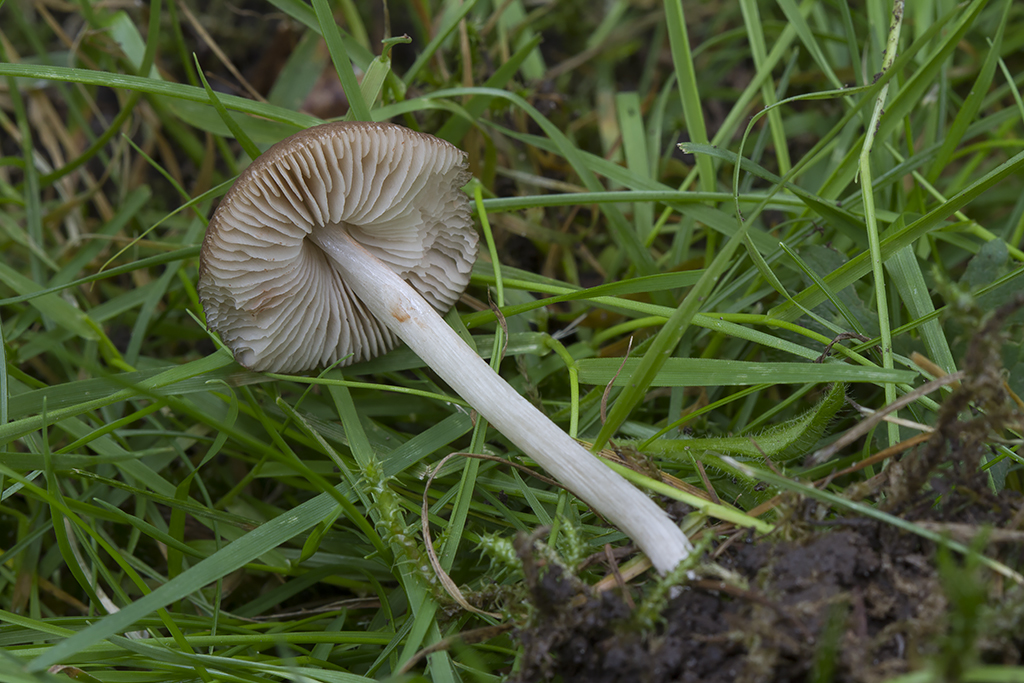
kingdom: Fungi
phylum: Basidiomycota
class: Agaricomycetes
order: Agaricales
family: Pluteaceae
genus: Pluteus
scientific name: Pluteus multiformis
